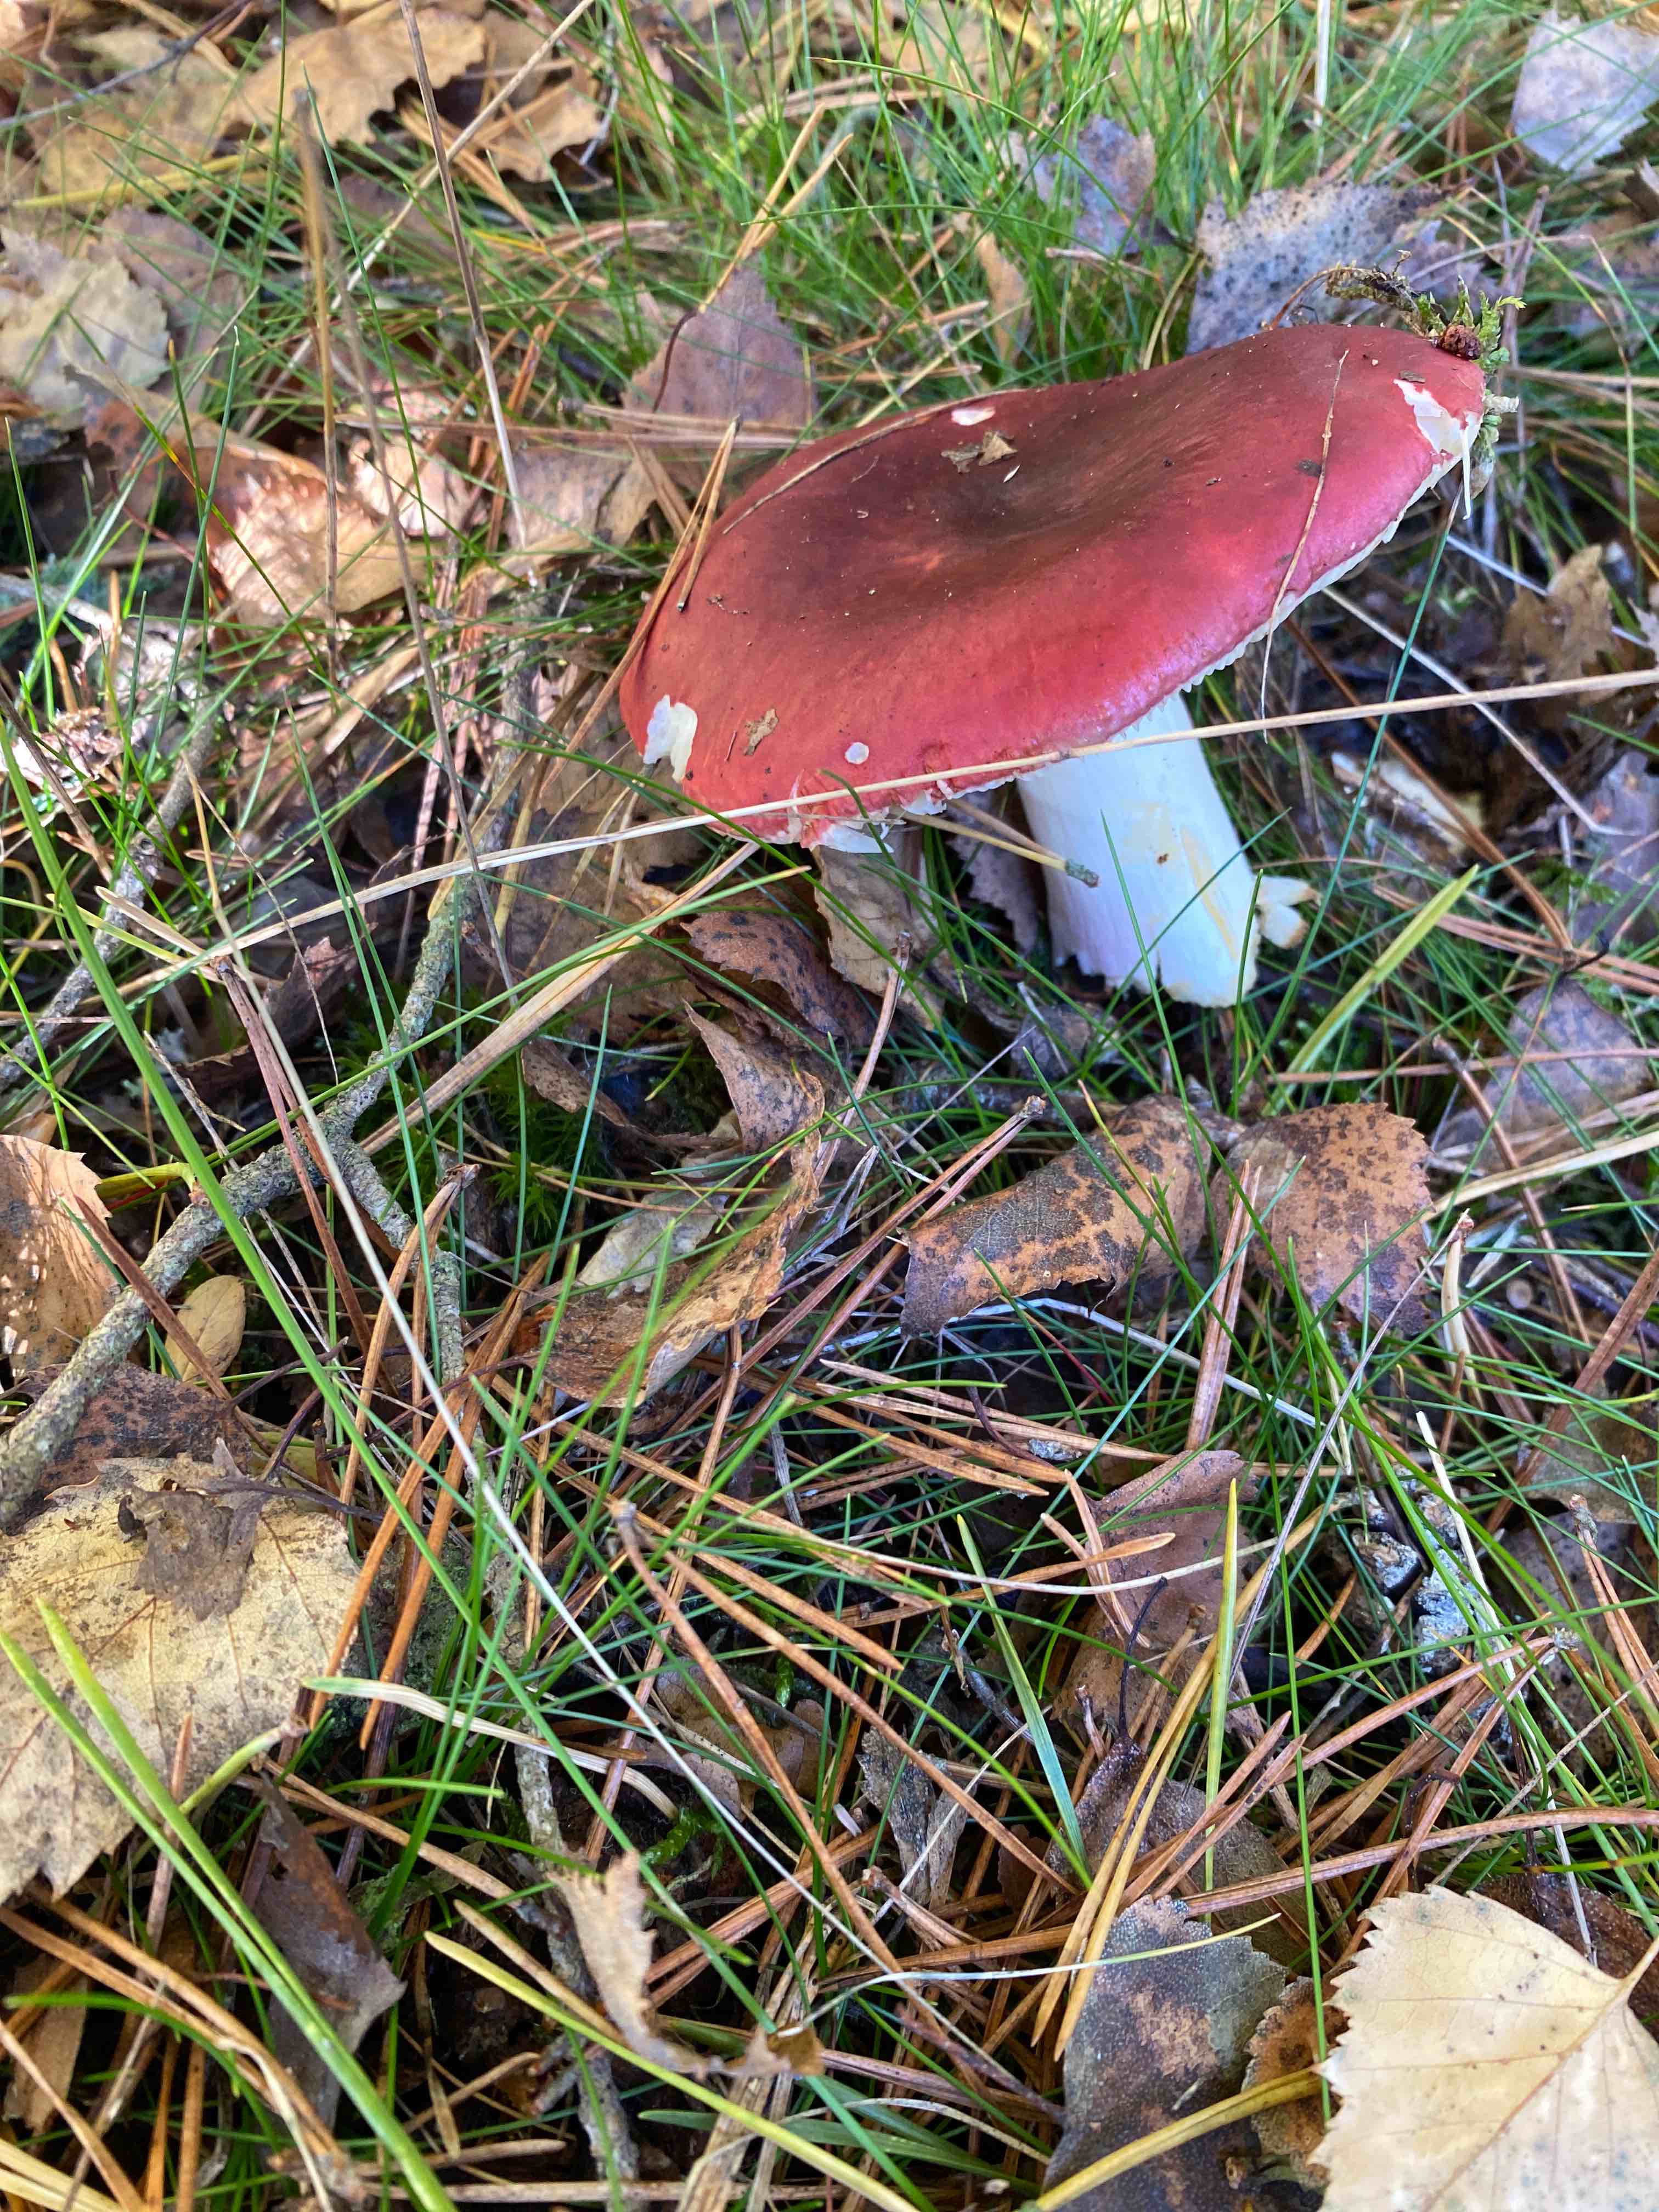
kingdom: Fungi
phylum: Basidiomycota
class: Agaricomycetes
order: Russulales
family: Russulaceae
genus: Russula
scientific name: Russula
